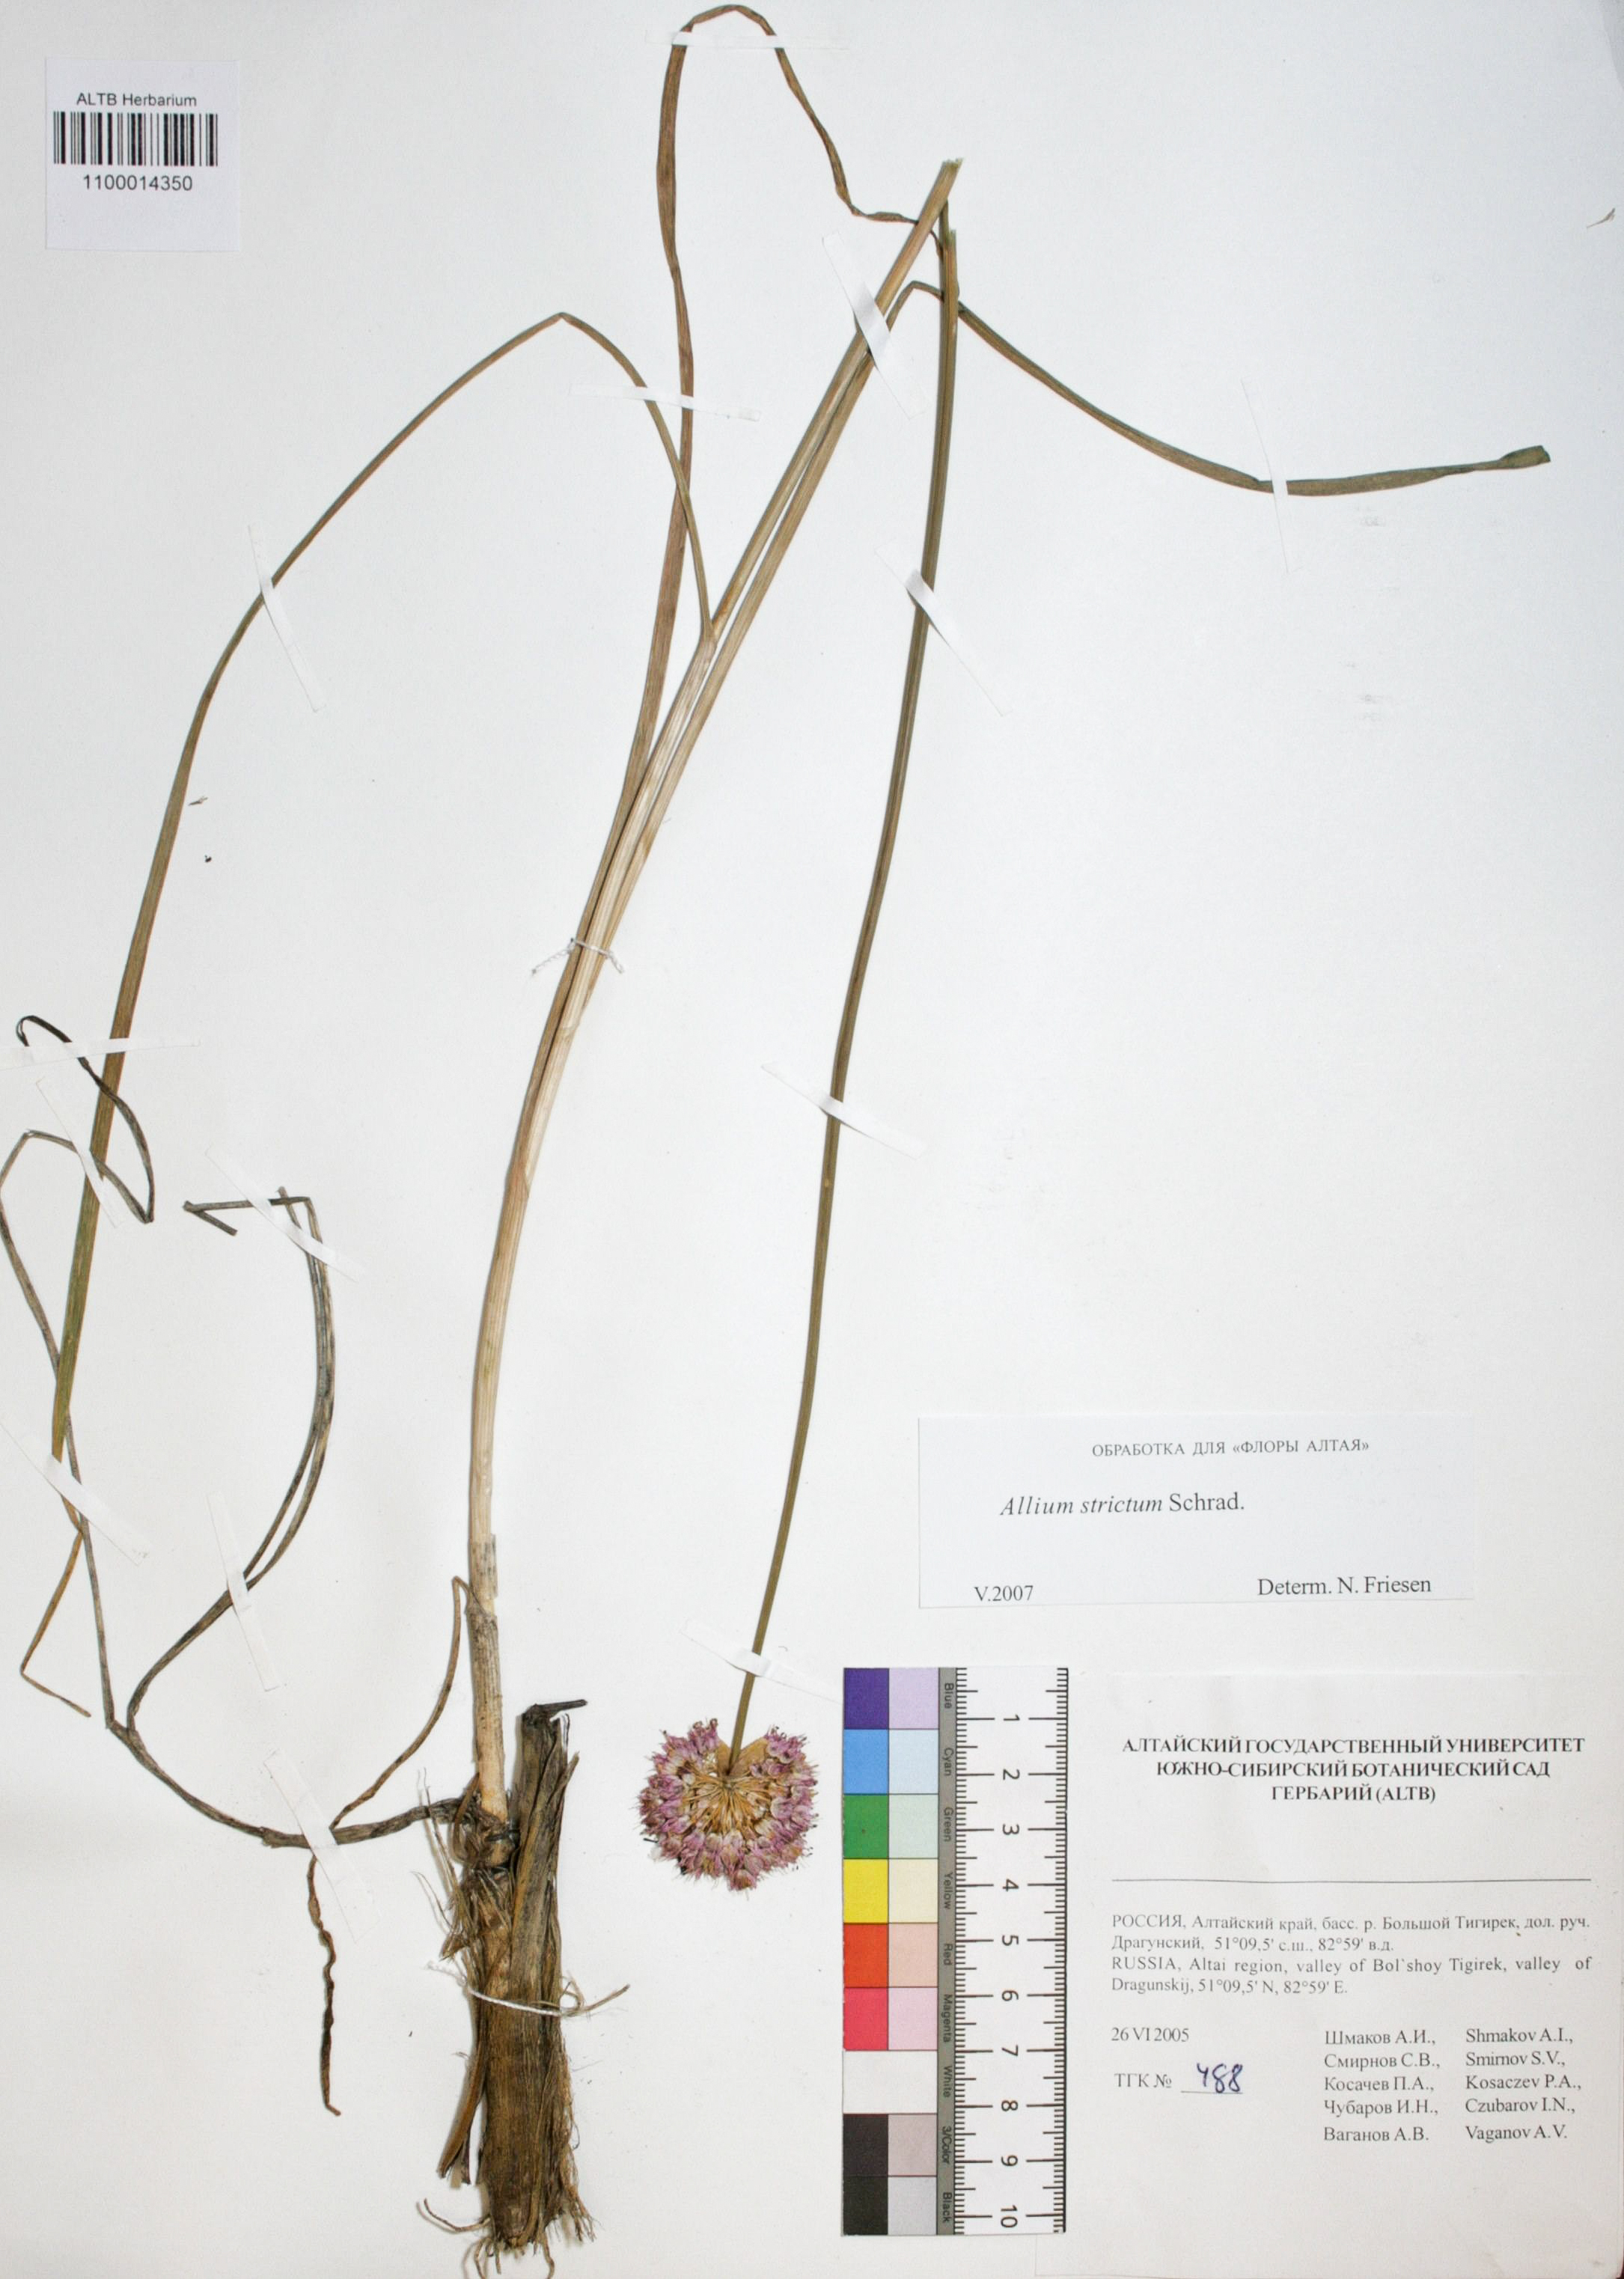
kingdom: Plantae
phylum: Tracheophyta
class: Liliopsida
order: Asparagales
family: Amaryllidaceae
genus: Allium
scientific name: Allium strictum
